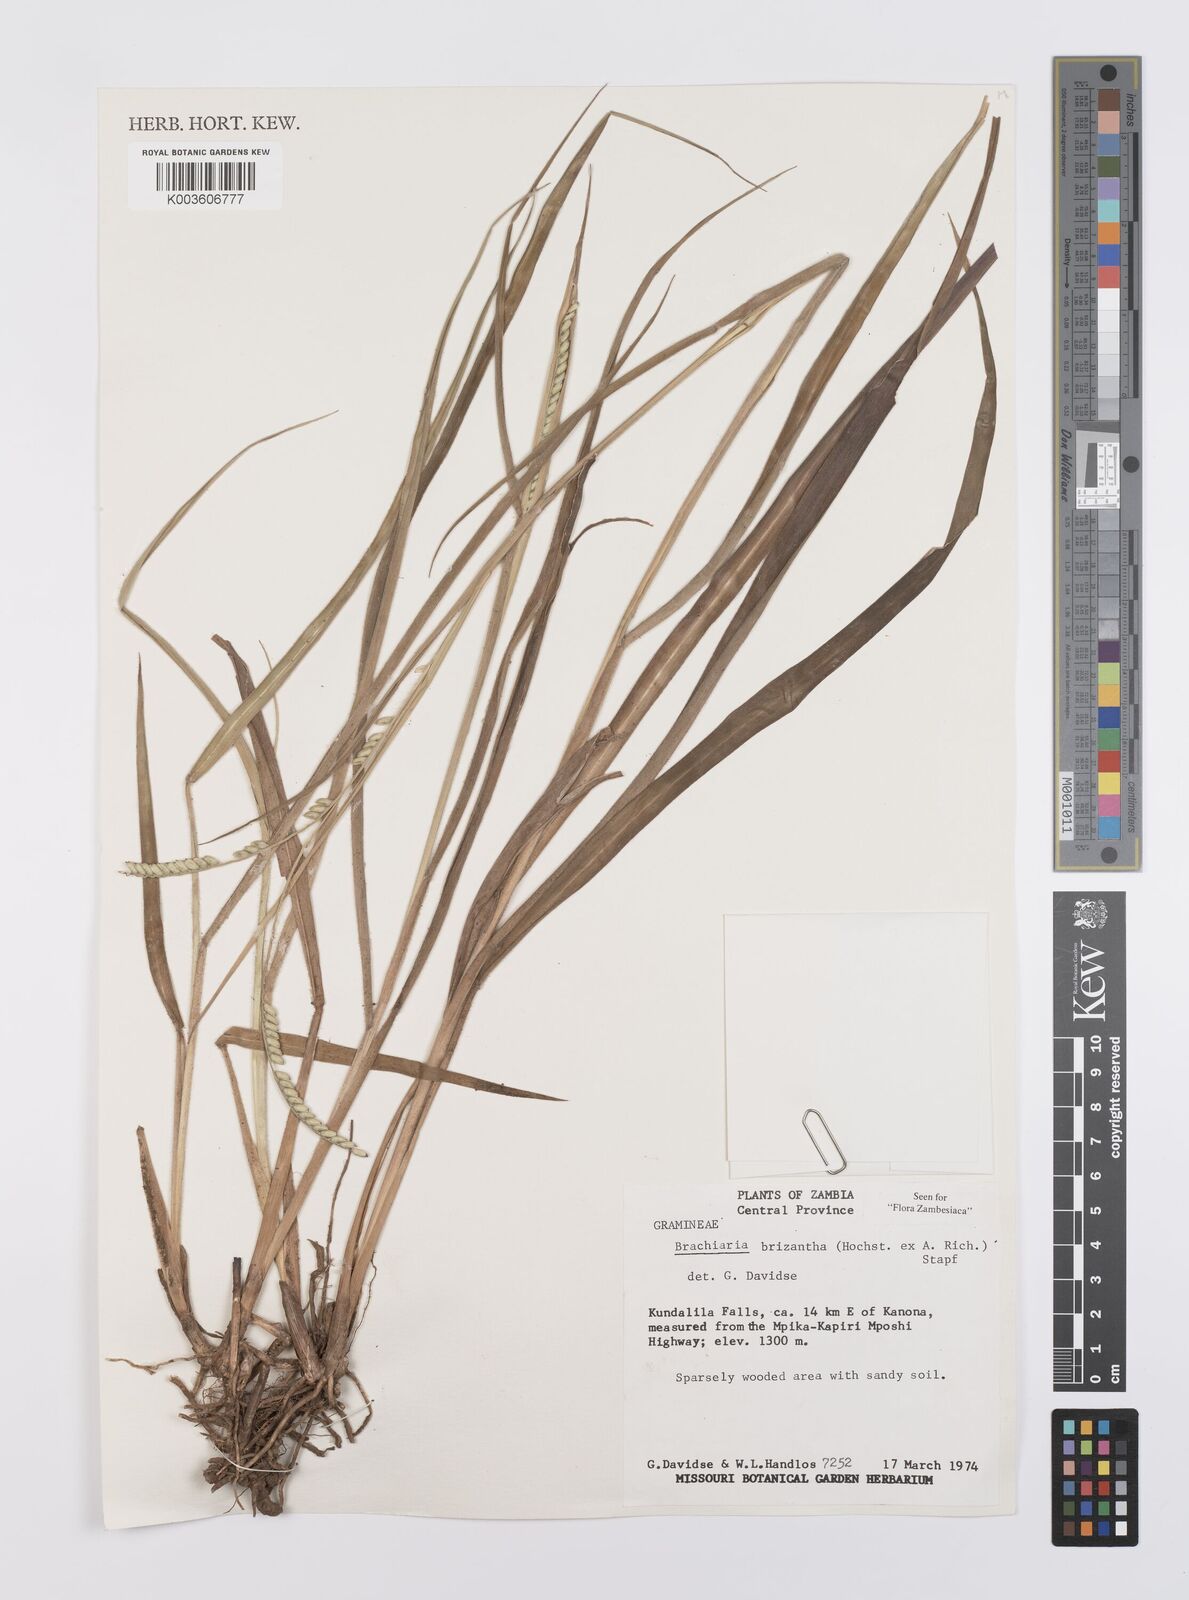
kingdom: Plantae
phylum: Tracheophyta
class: Liliopsida
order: Poales
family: Poaceae
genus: Urochloa
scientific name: Urochloa brizantha
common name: Palisade signalgrass
